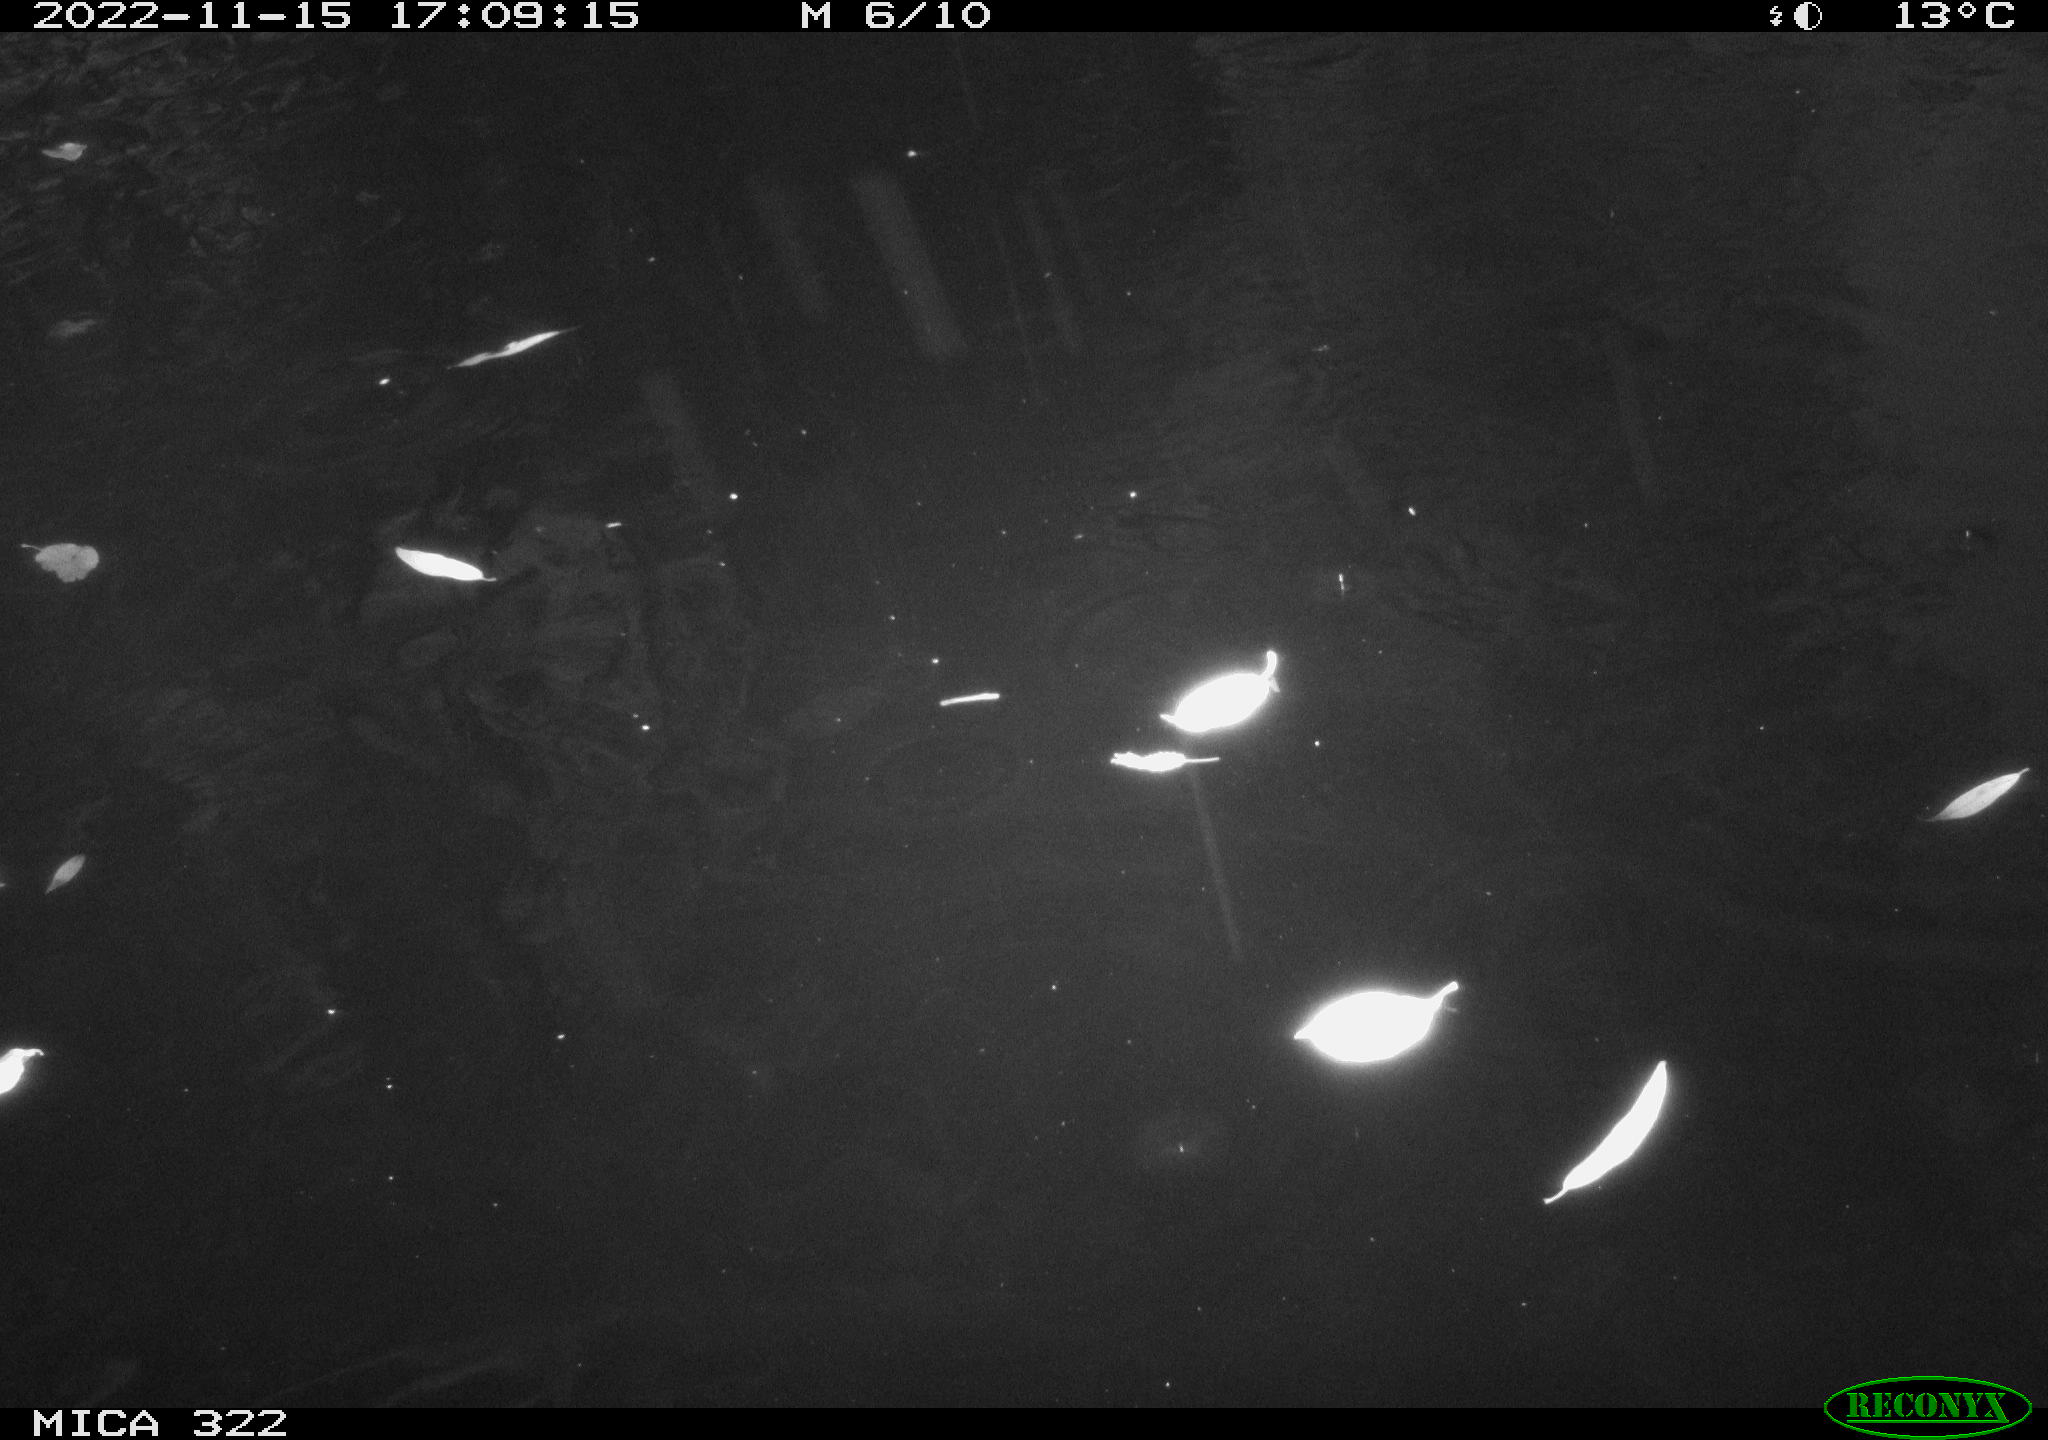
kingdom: Animalia
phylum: Chordata
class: Aves
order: Anseriformes
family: Anatidae
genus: Anas
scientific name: Anas
